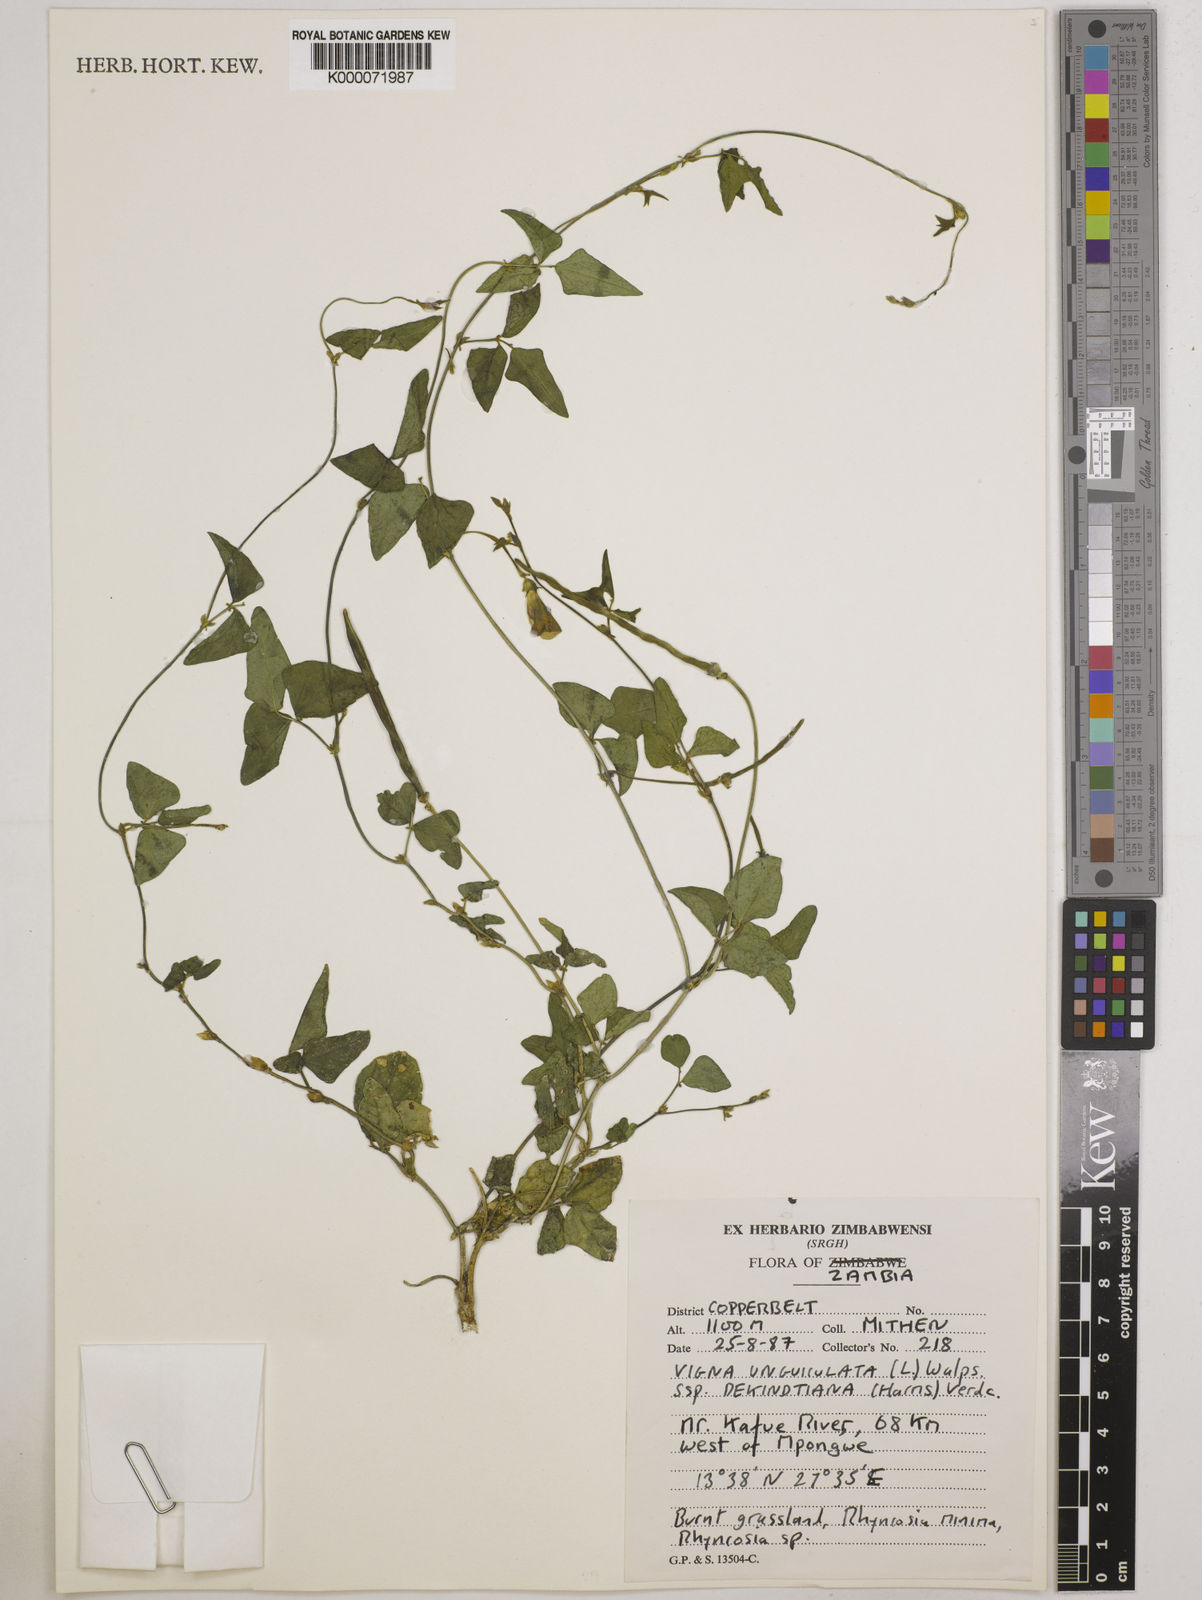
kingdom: Plantae
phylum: Tracheophyta
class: Magnoliopsida
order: Fabales
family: Fabaceae
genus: Vigna
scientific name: Vigna unguiculata
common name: Cowpea
